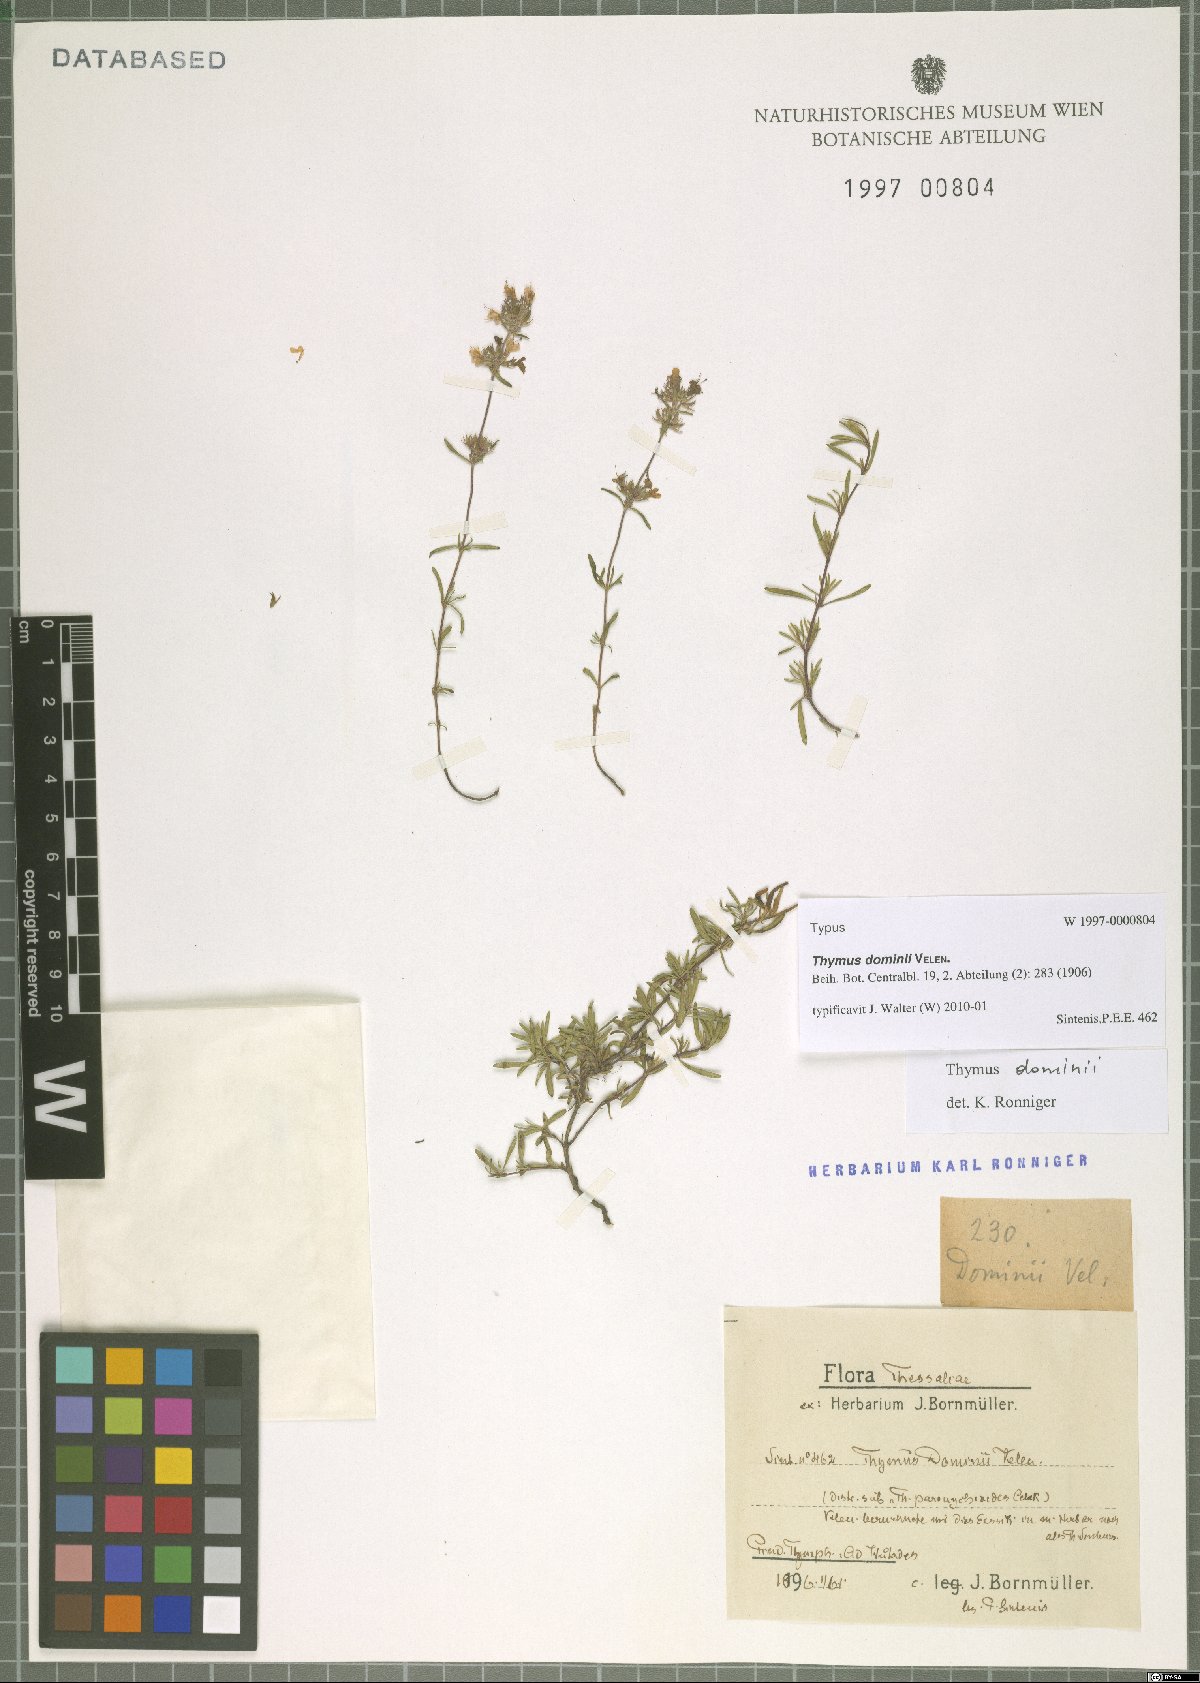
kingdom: Plantae
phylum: Tracheophyta
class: Magnoliopsida
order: Lamiales
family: Lamiaceae
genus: Thymus
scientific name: Thymus sibthorpii
